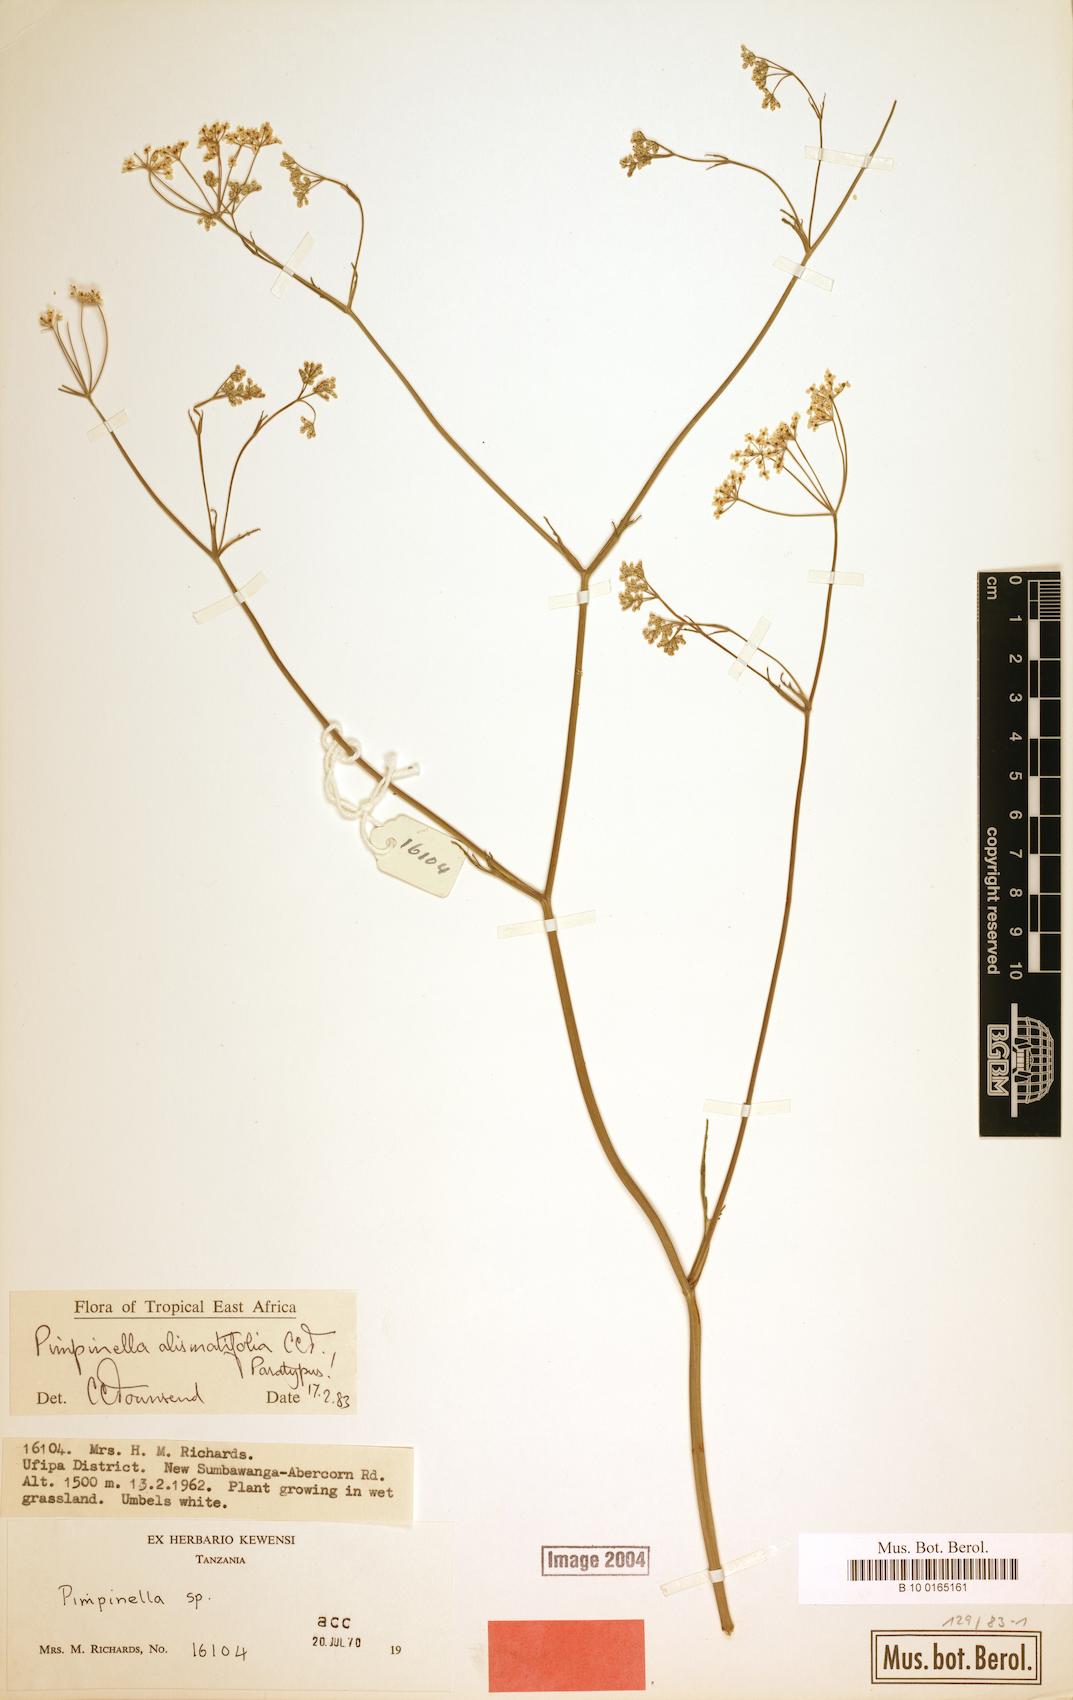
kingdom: Plantae
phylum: Tracheophyta
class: Magnoliopsida
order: Apiales
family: Apiaceae
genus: Pimpinella
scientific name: Pimpinella alismatifolia
